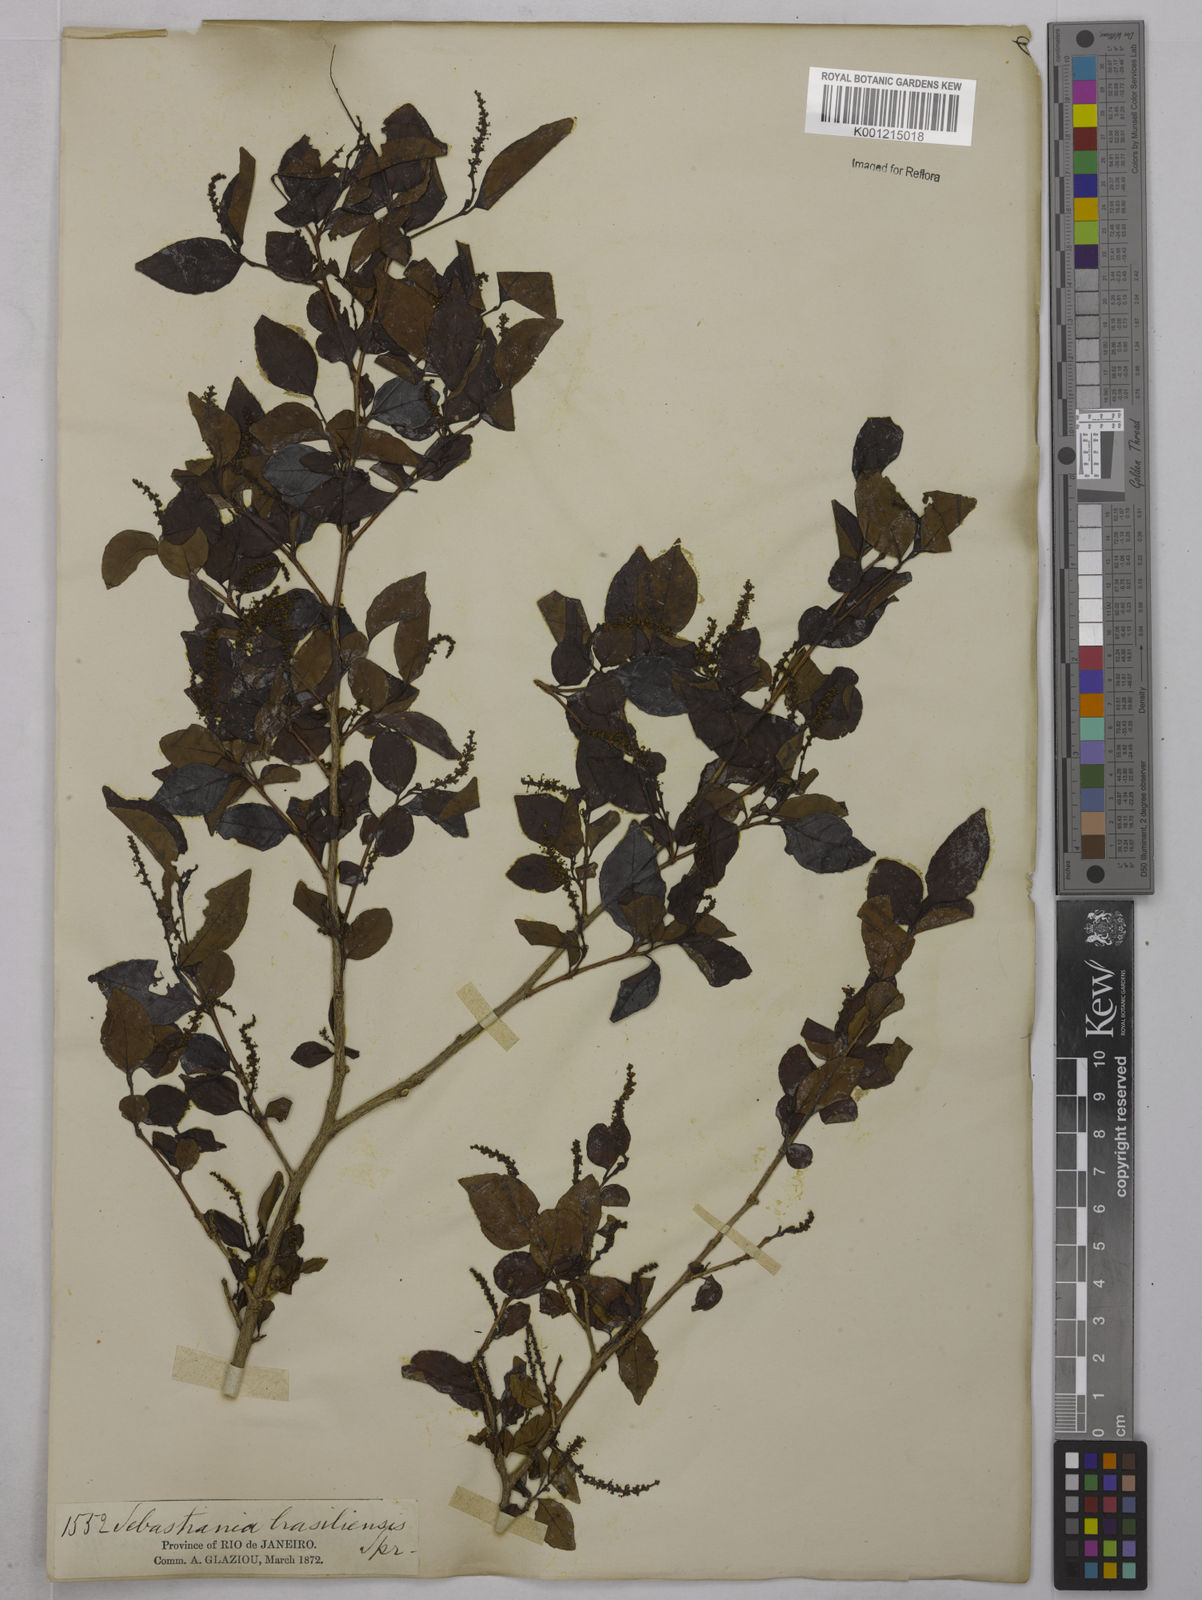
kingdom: Plantae
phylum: Tracheophyta
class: Magnoliopsida
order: Malpighiales
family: Euphorbiaceae
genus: Sebastiania
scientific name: Sebastiania brasiliensis
